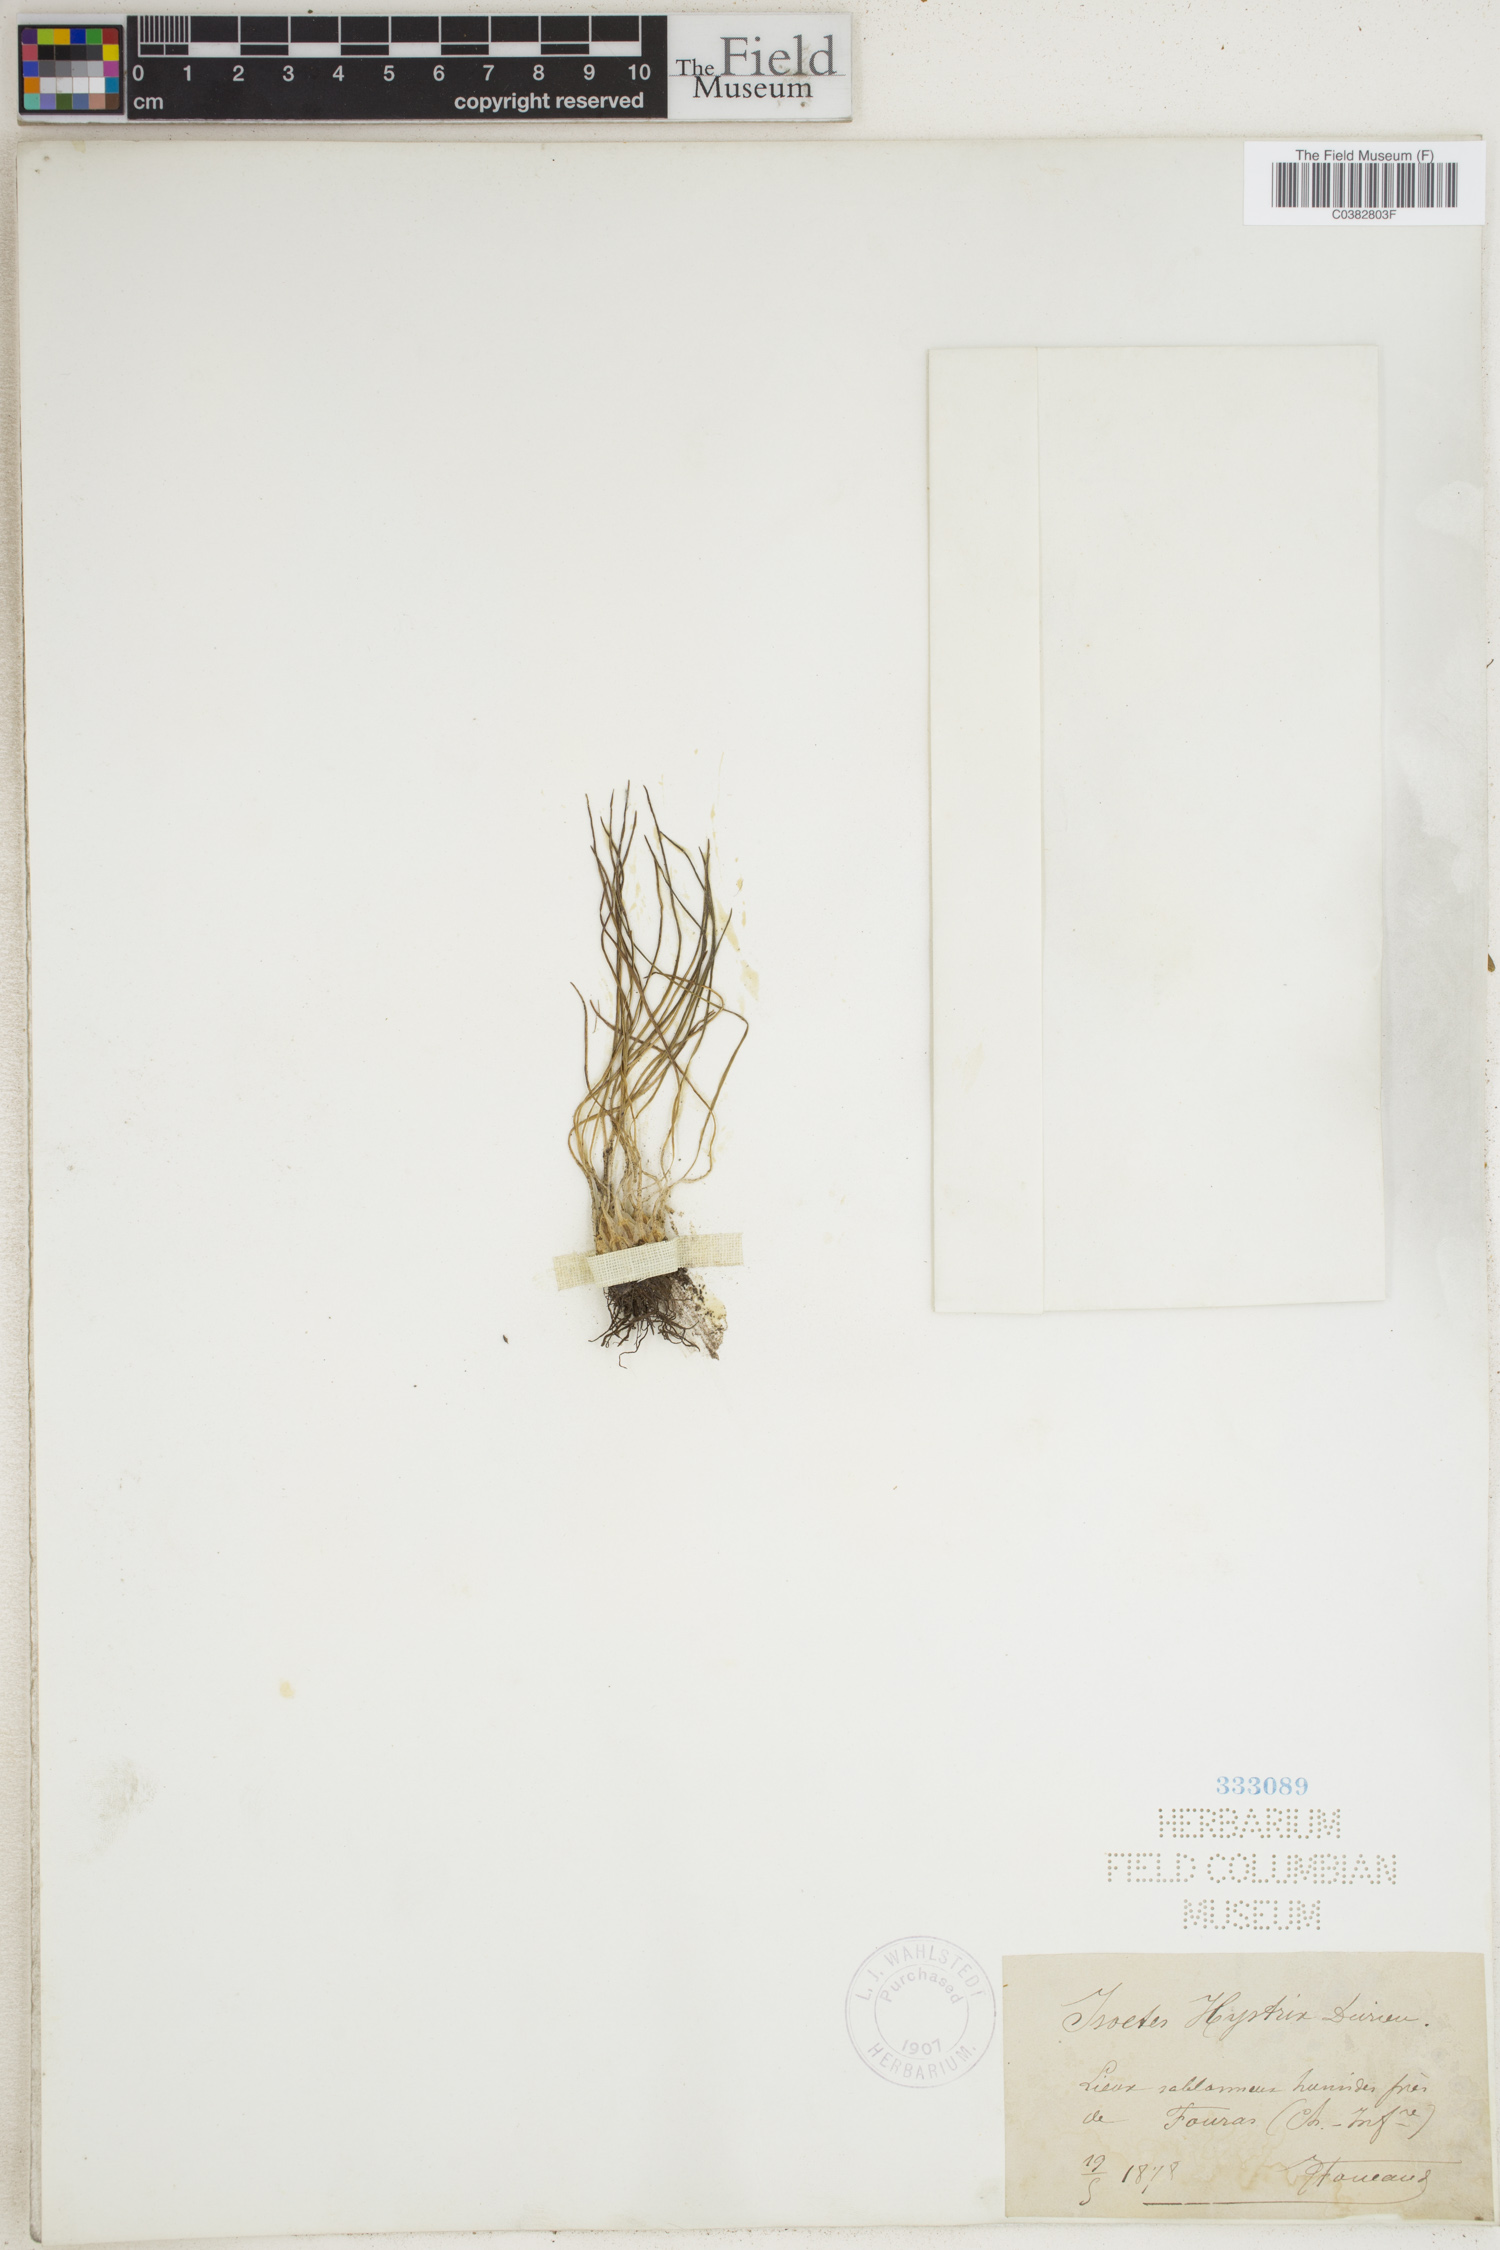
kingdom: Plantae
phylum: Tracheophyta
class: Lycopodiopsida
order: Isoetales
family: Isoetaceae
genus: Isoetes
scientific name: Isoetes histrix
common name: Land quillwort
